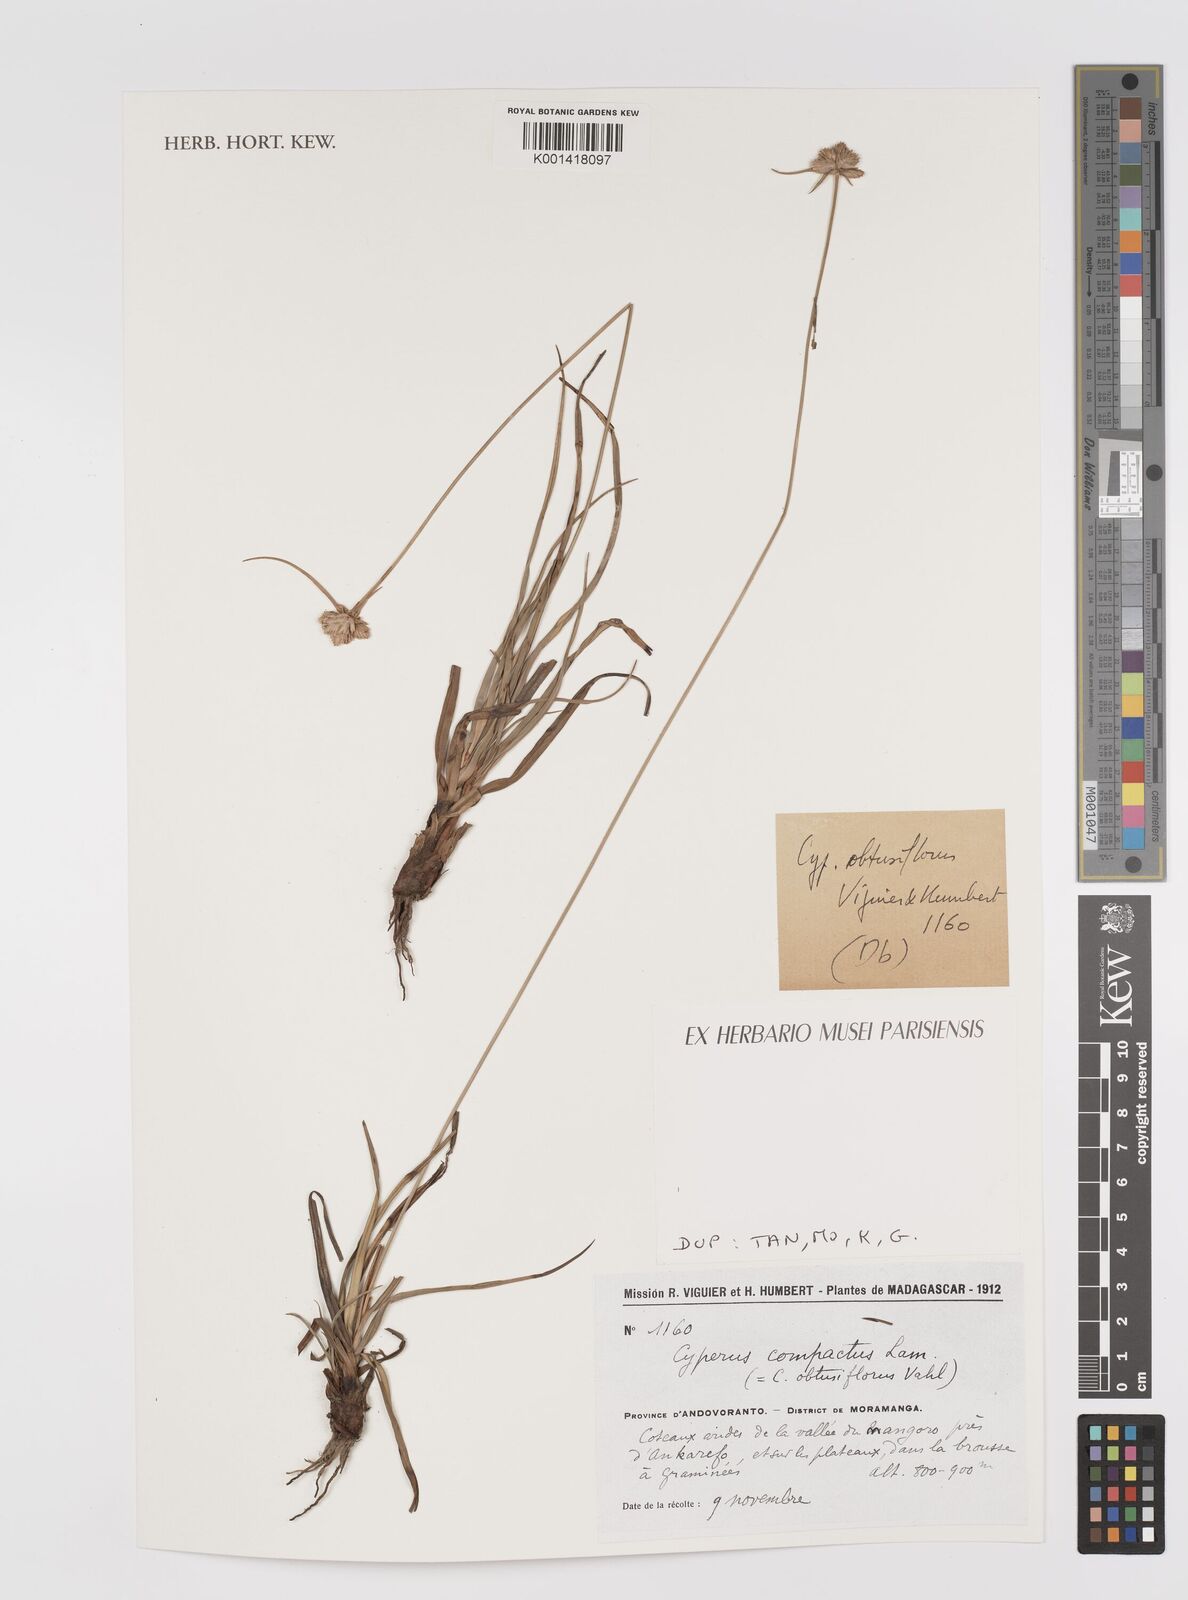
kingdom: Plantae
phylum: Tracheophyta
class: Liliopsida
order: Poales
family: Cyperaceae
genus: Cyperus
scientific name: Cyperus niveus
